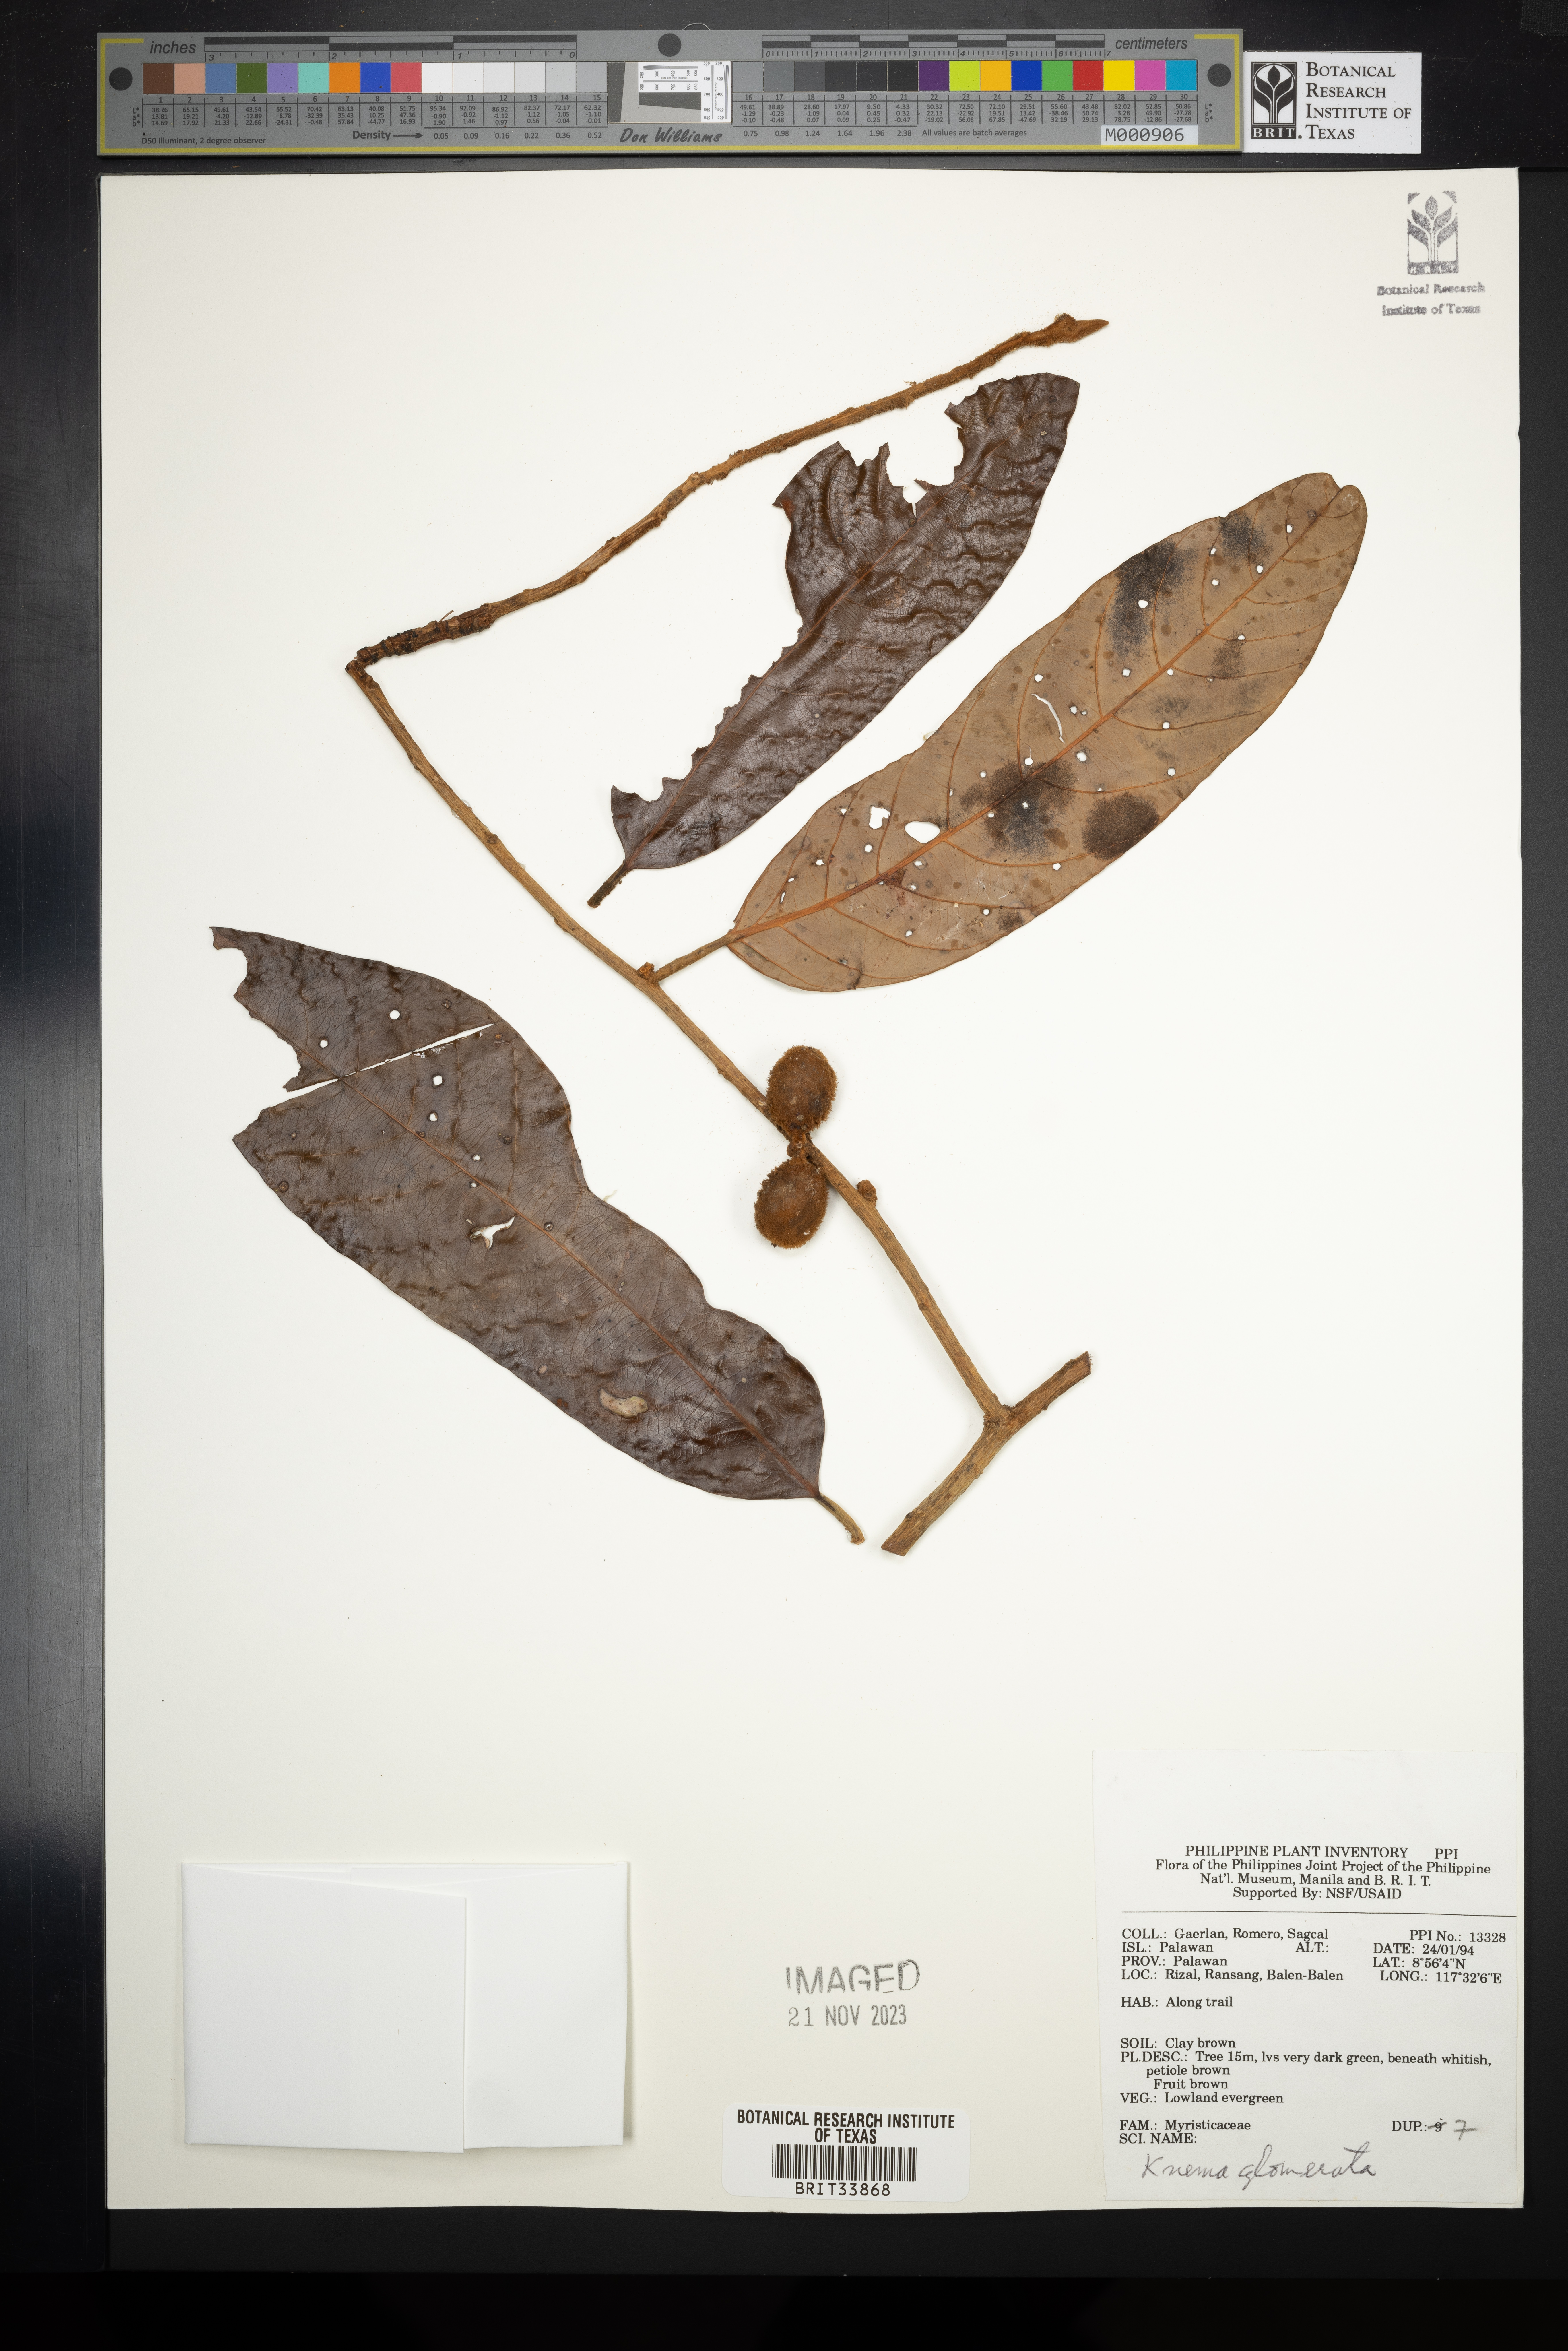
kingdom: Plantae
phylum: Tracheophyta
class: Magnoliopsida
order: Magnoliales
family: Myristicaceae
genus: Knema
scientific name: Knema glomerata
